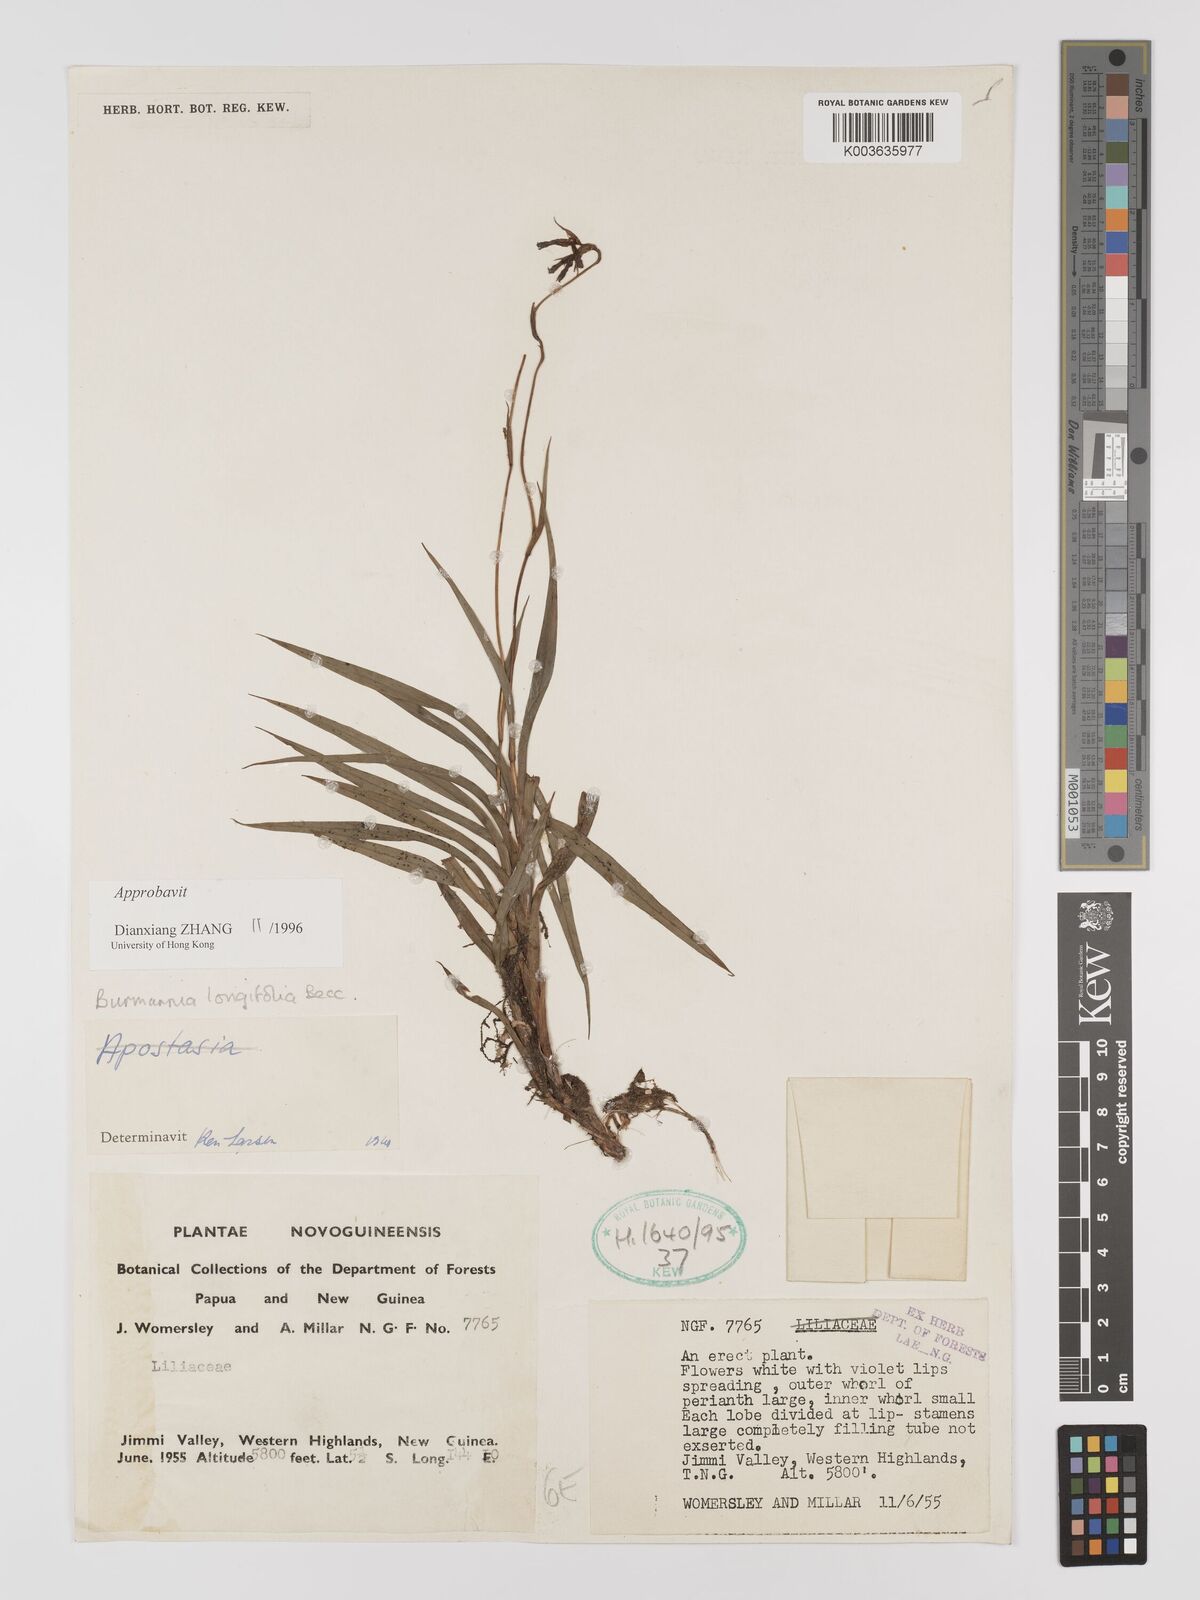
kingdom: Plantae
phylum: Tracheophyta
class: Liliopsida
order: Dioscoreales
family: Burmanniaceae
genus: Burmannia
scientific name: Burmannia longifolia
